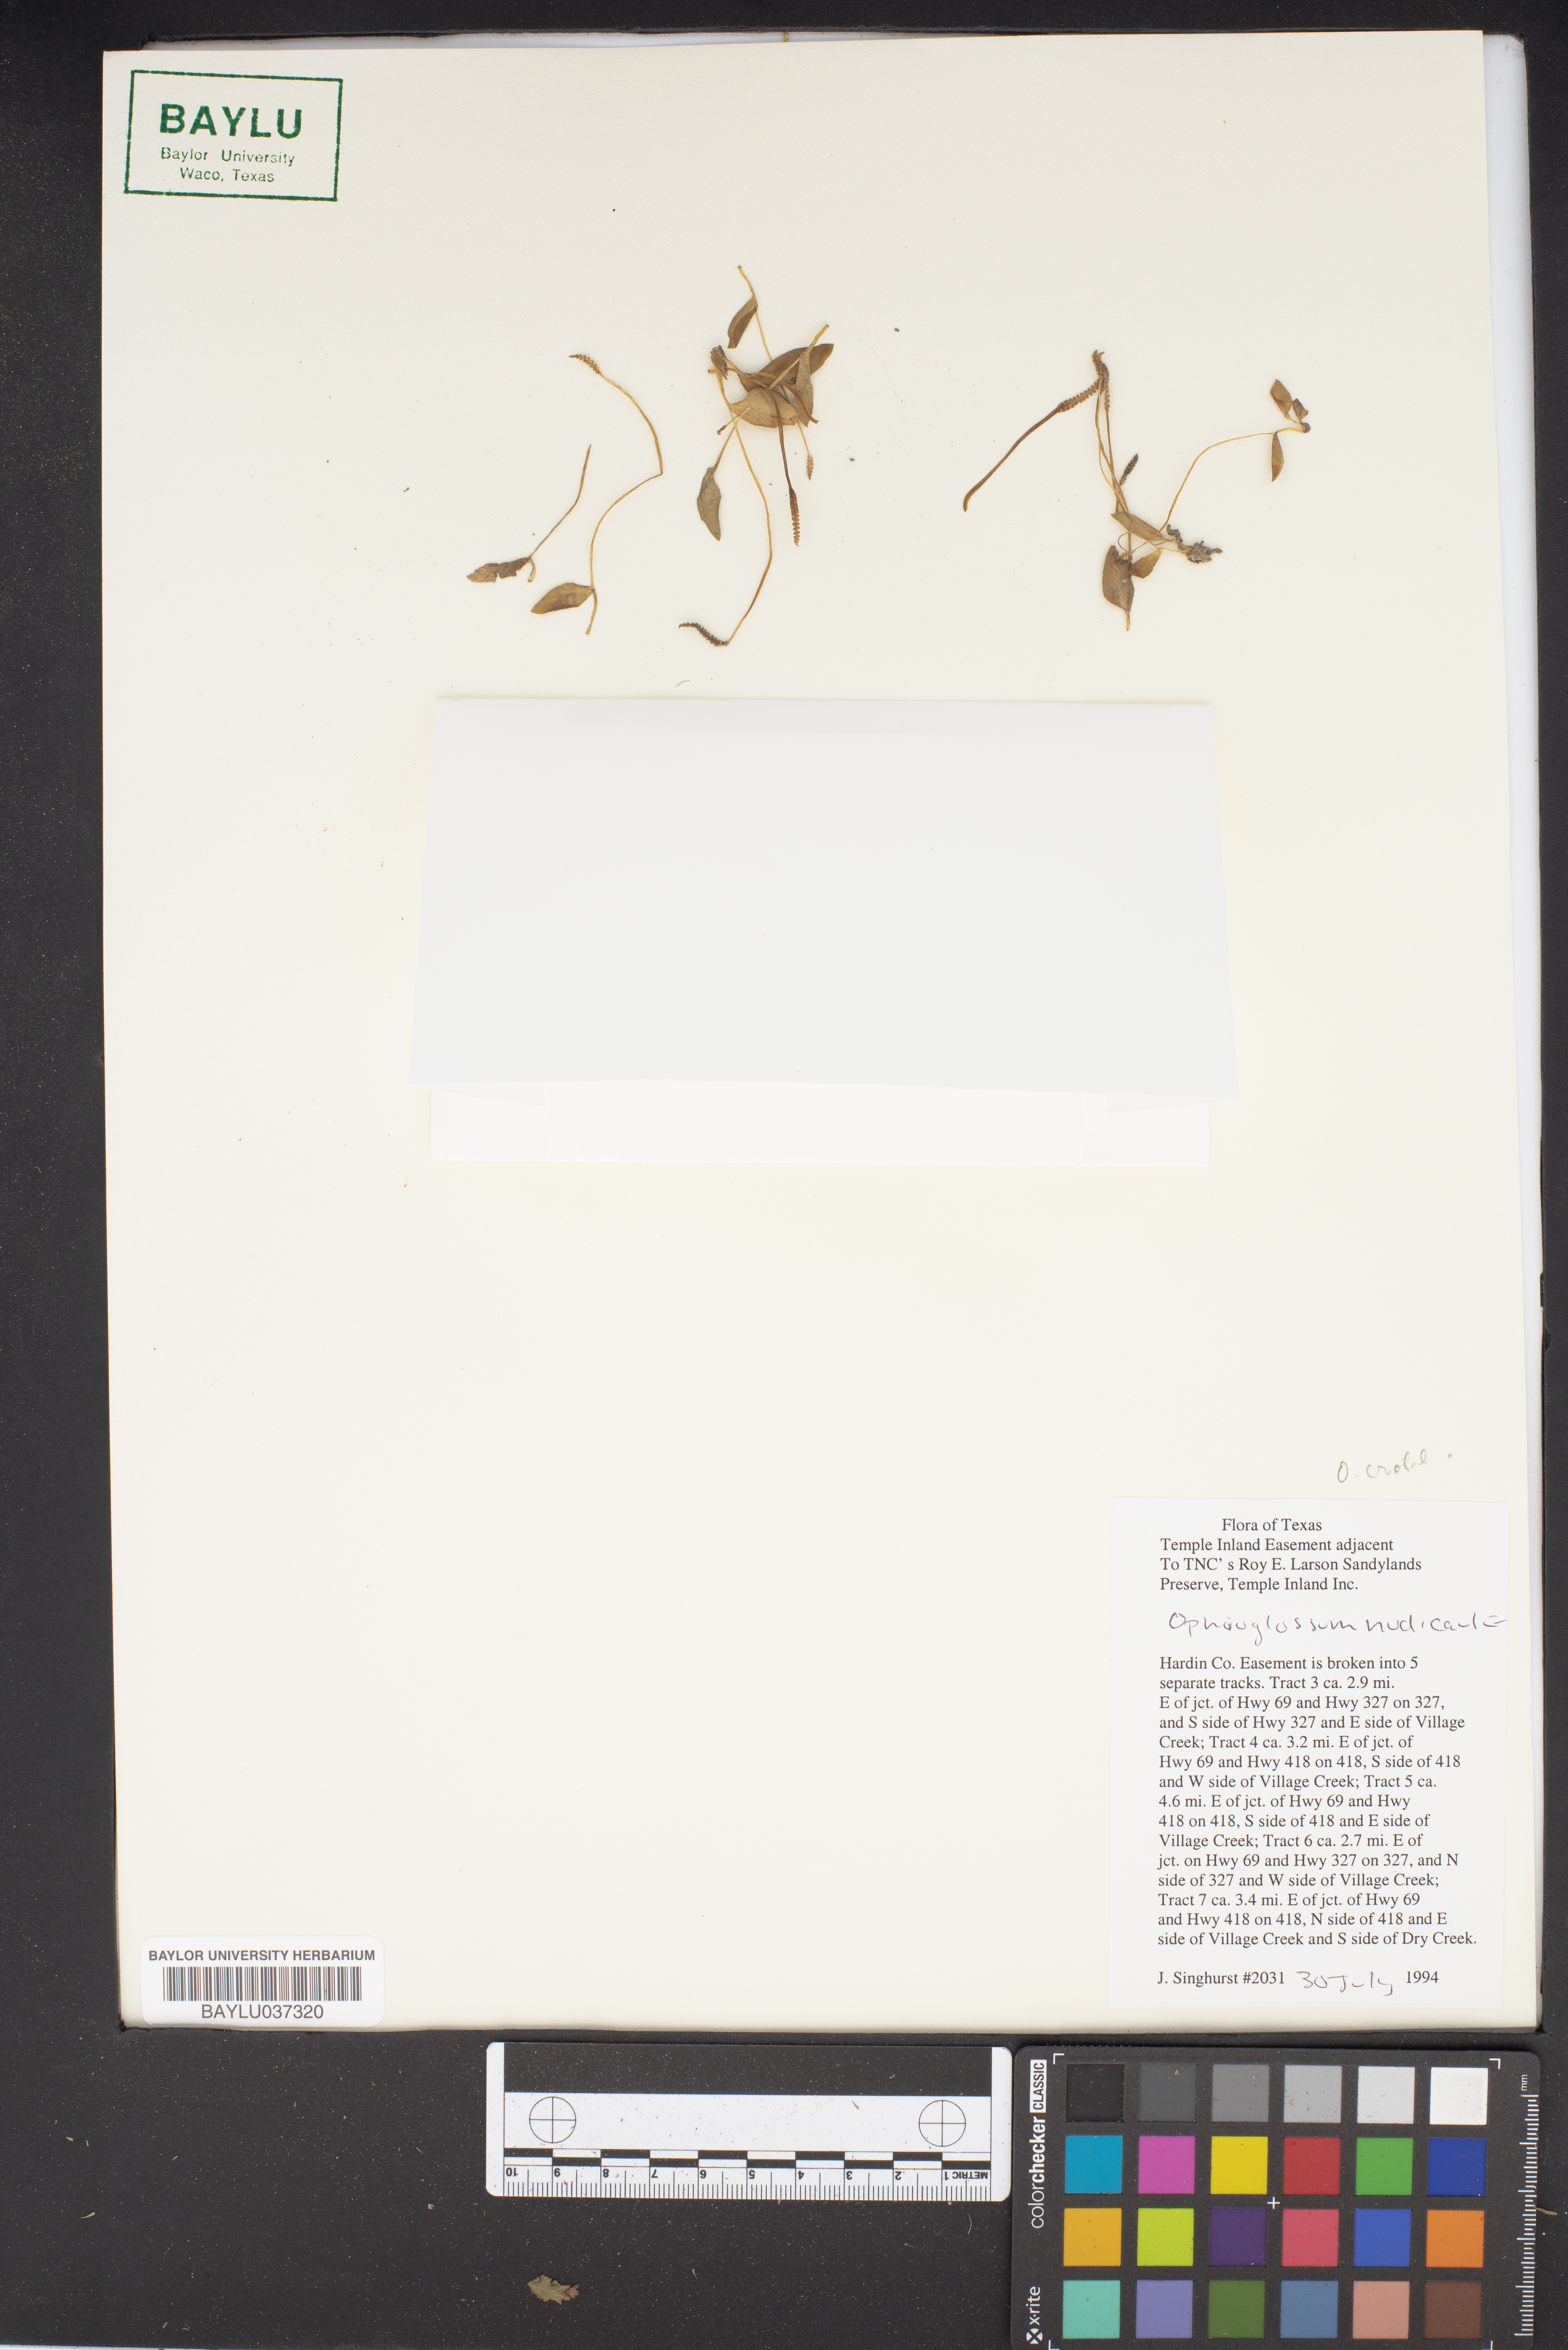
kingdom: Plantae
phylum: Tracheophyta
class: Polypodiopsida
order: Ophioglossales
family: Ophioglossaceae
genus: Ophioglossum
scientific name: Ophioglossum nudicaule
